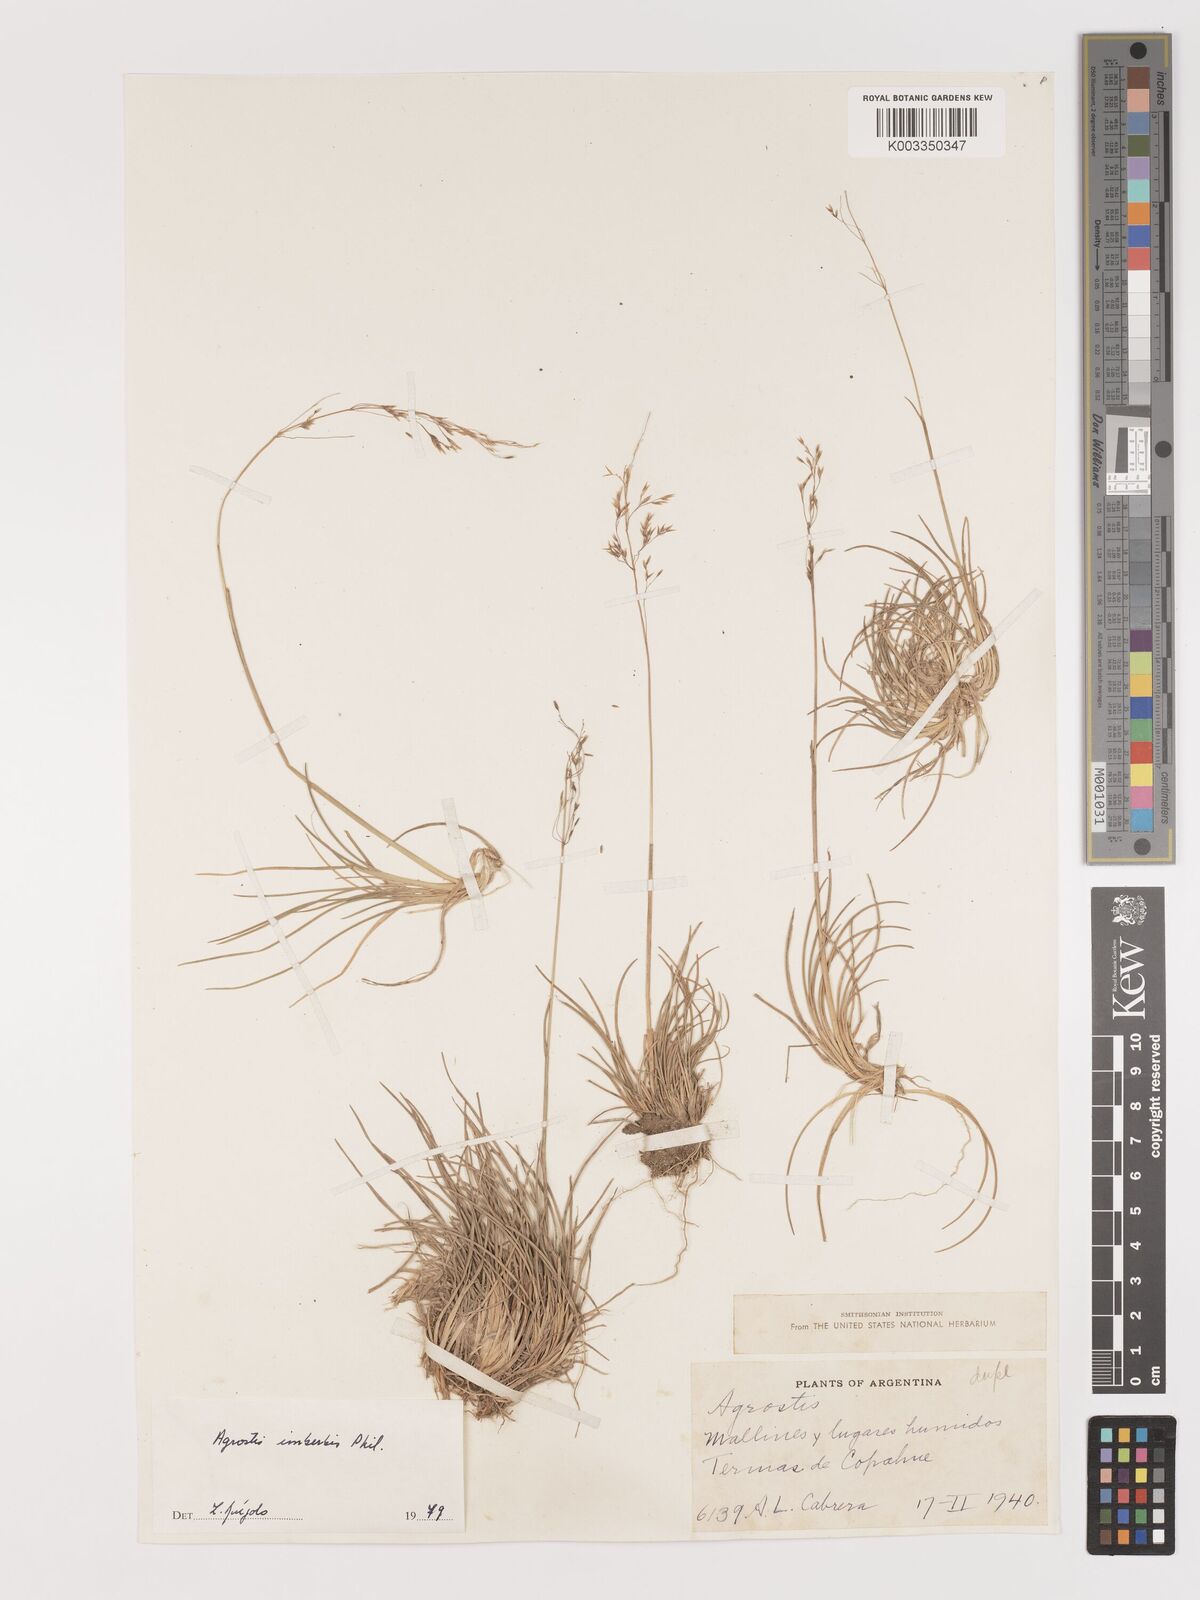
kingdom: Plantae
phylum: Tracheophyta
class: Liliopsida
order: Poales
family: Poaceae
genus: Agrostis
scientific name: Agrostis
